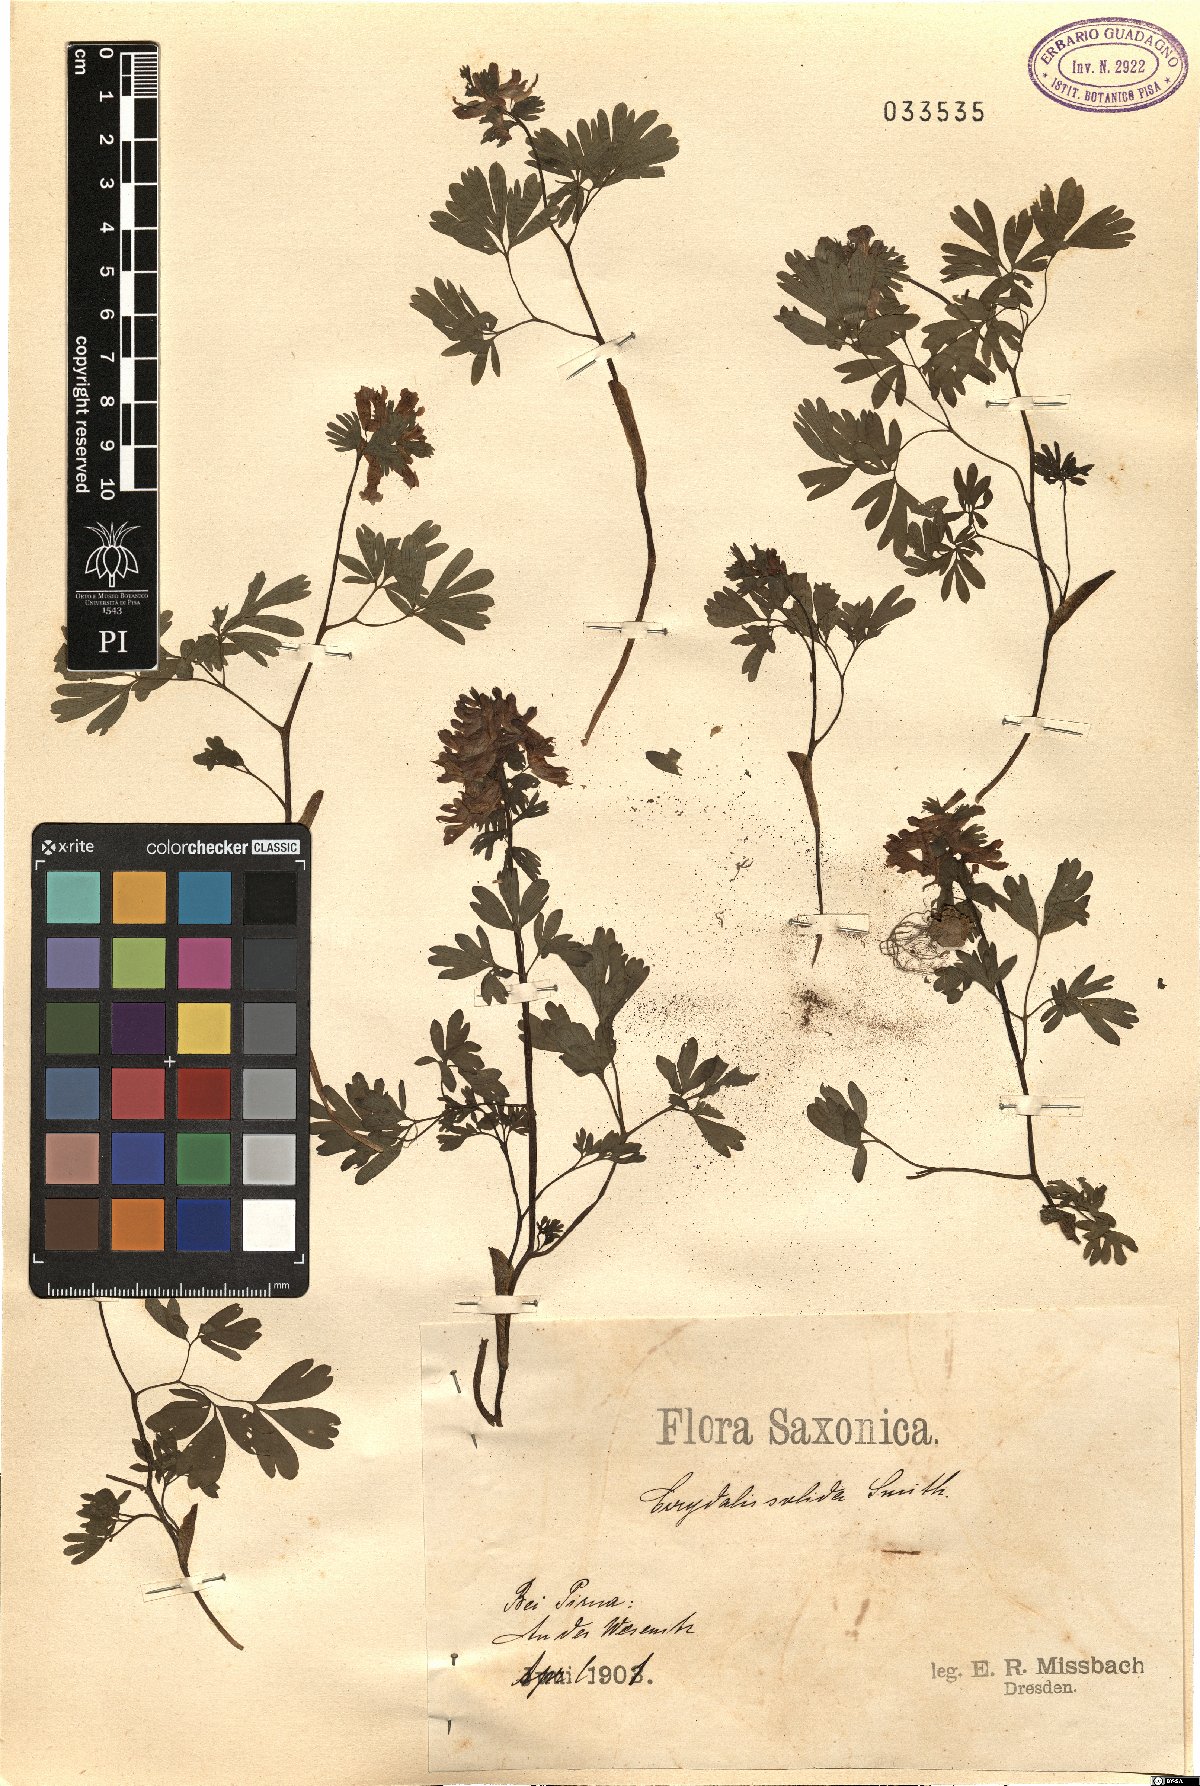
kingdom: Plantae
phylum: Tracheophyta
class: Magnoliopsida
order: Ranunculales
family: Papaveraceae
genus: Corydalis
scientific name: Corydalis solida
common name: Bird-in-a-bush
